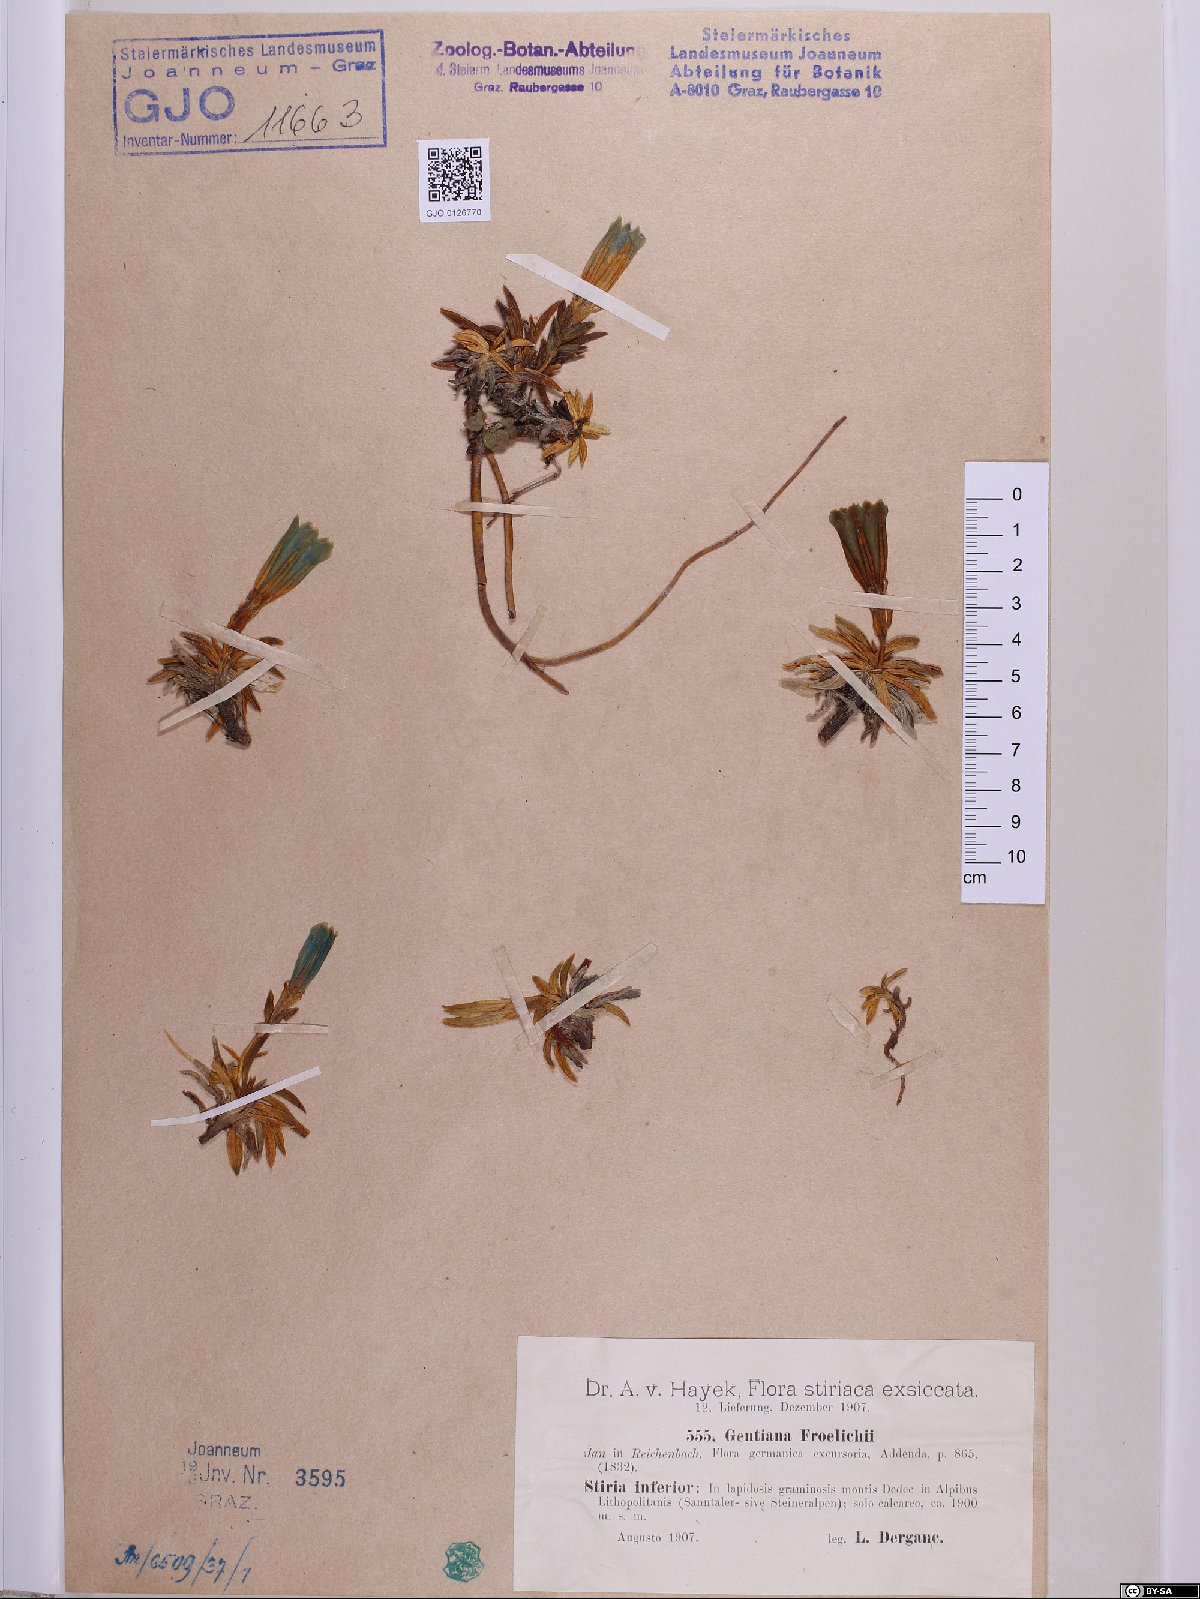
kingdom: Plantae
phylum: Tracheophyta
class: Magnoliopsida
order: Gentianales
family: Gentianaceae
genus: Gentiana
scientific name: Gentiana froelichii
